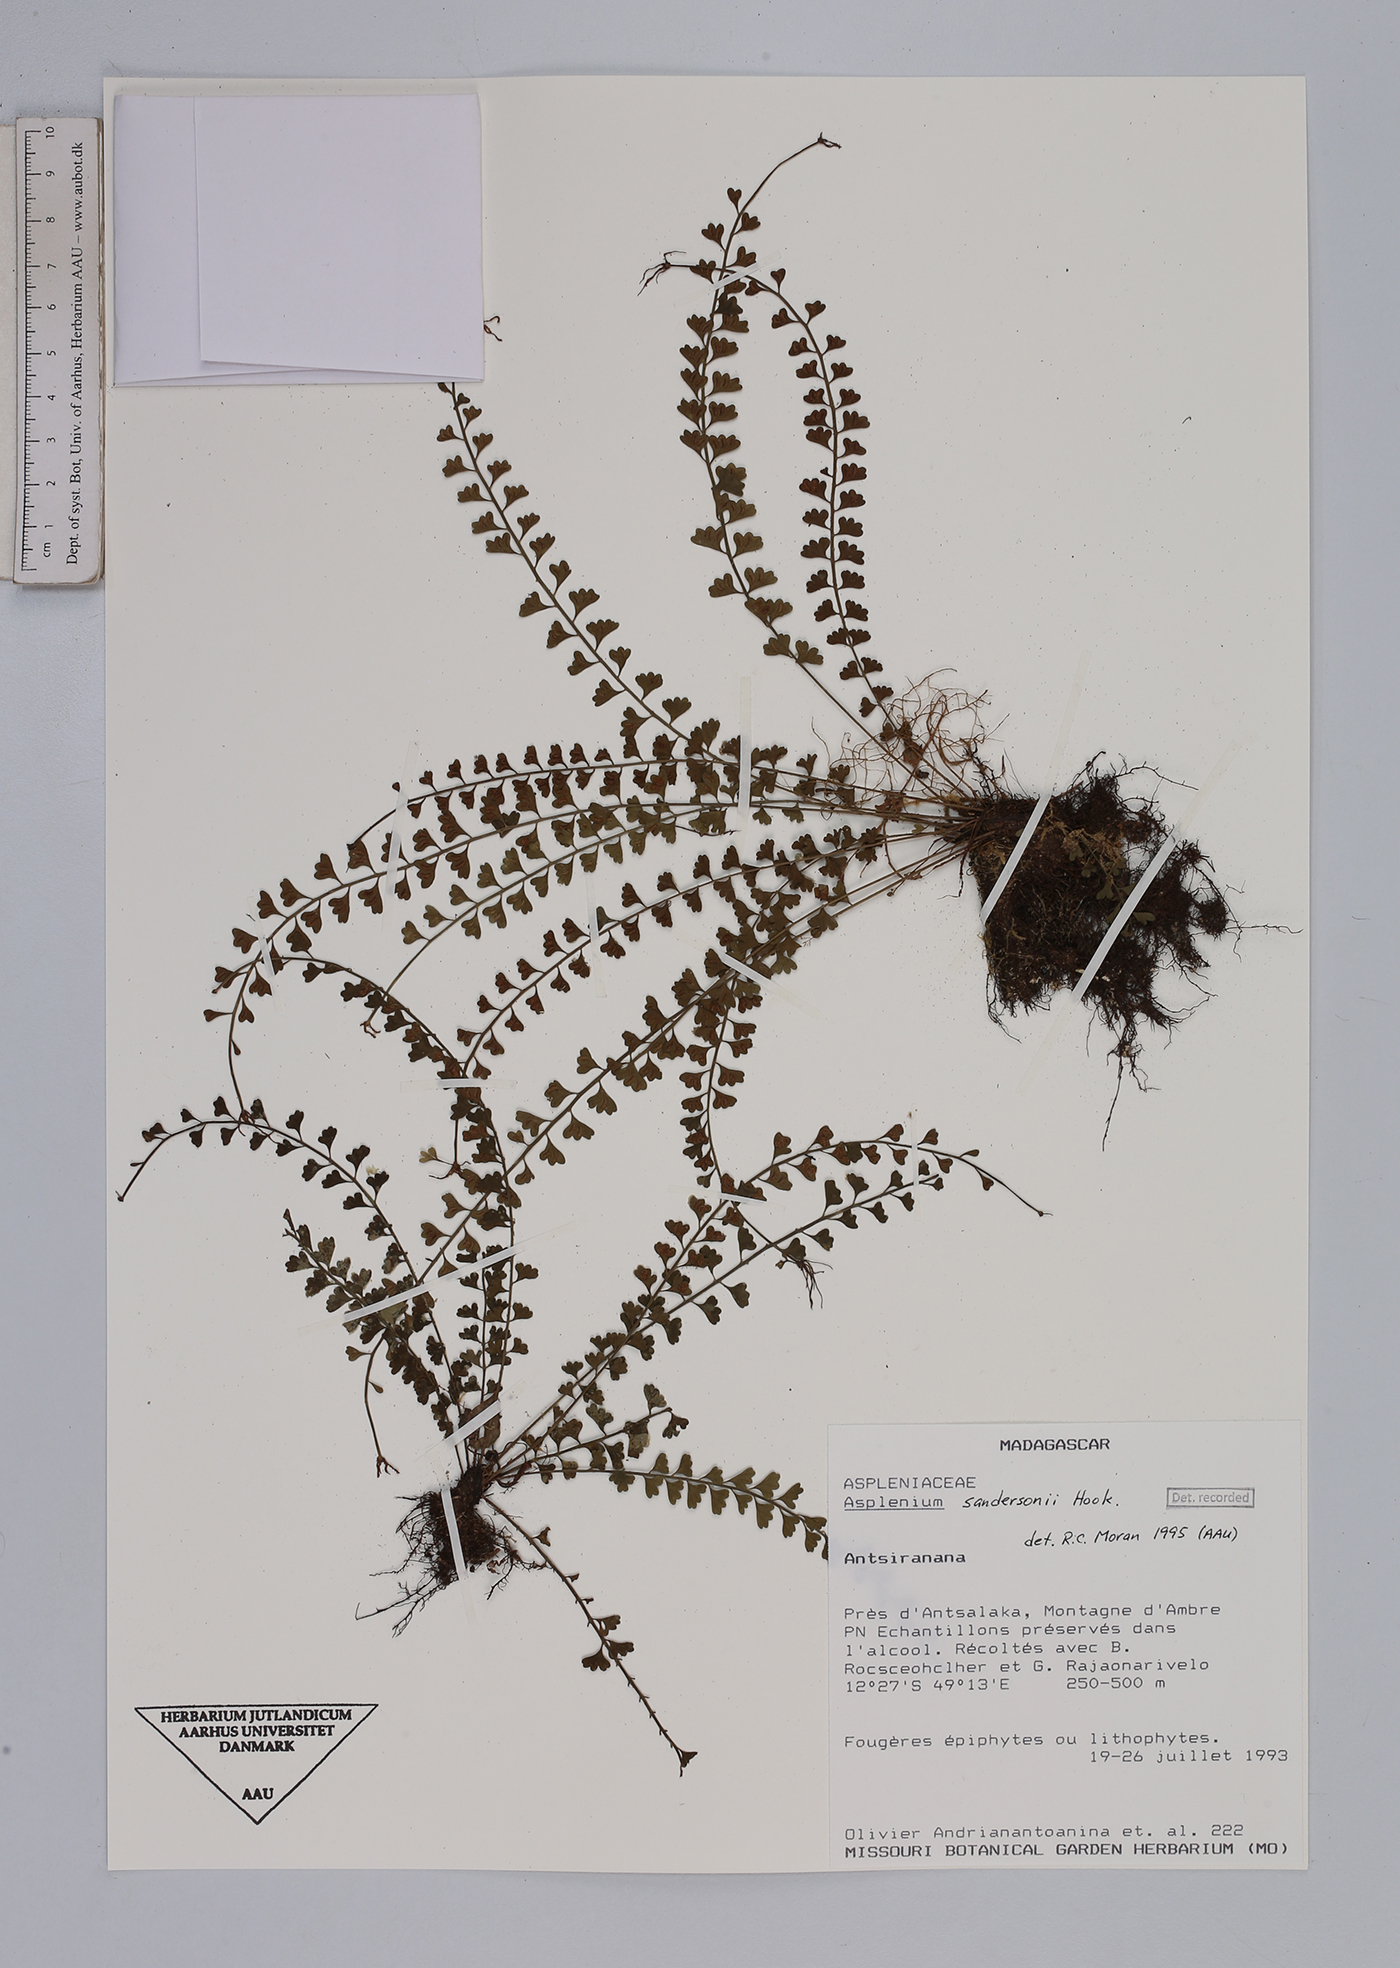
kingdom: Plantae
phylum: Tracheophyta
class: Polypodiopsida
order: Polypodiales
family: Aspleniaceae
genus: Asplenium
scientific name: Asplenium sandersonii
